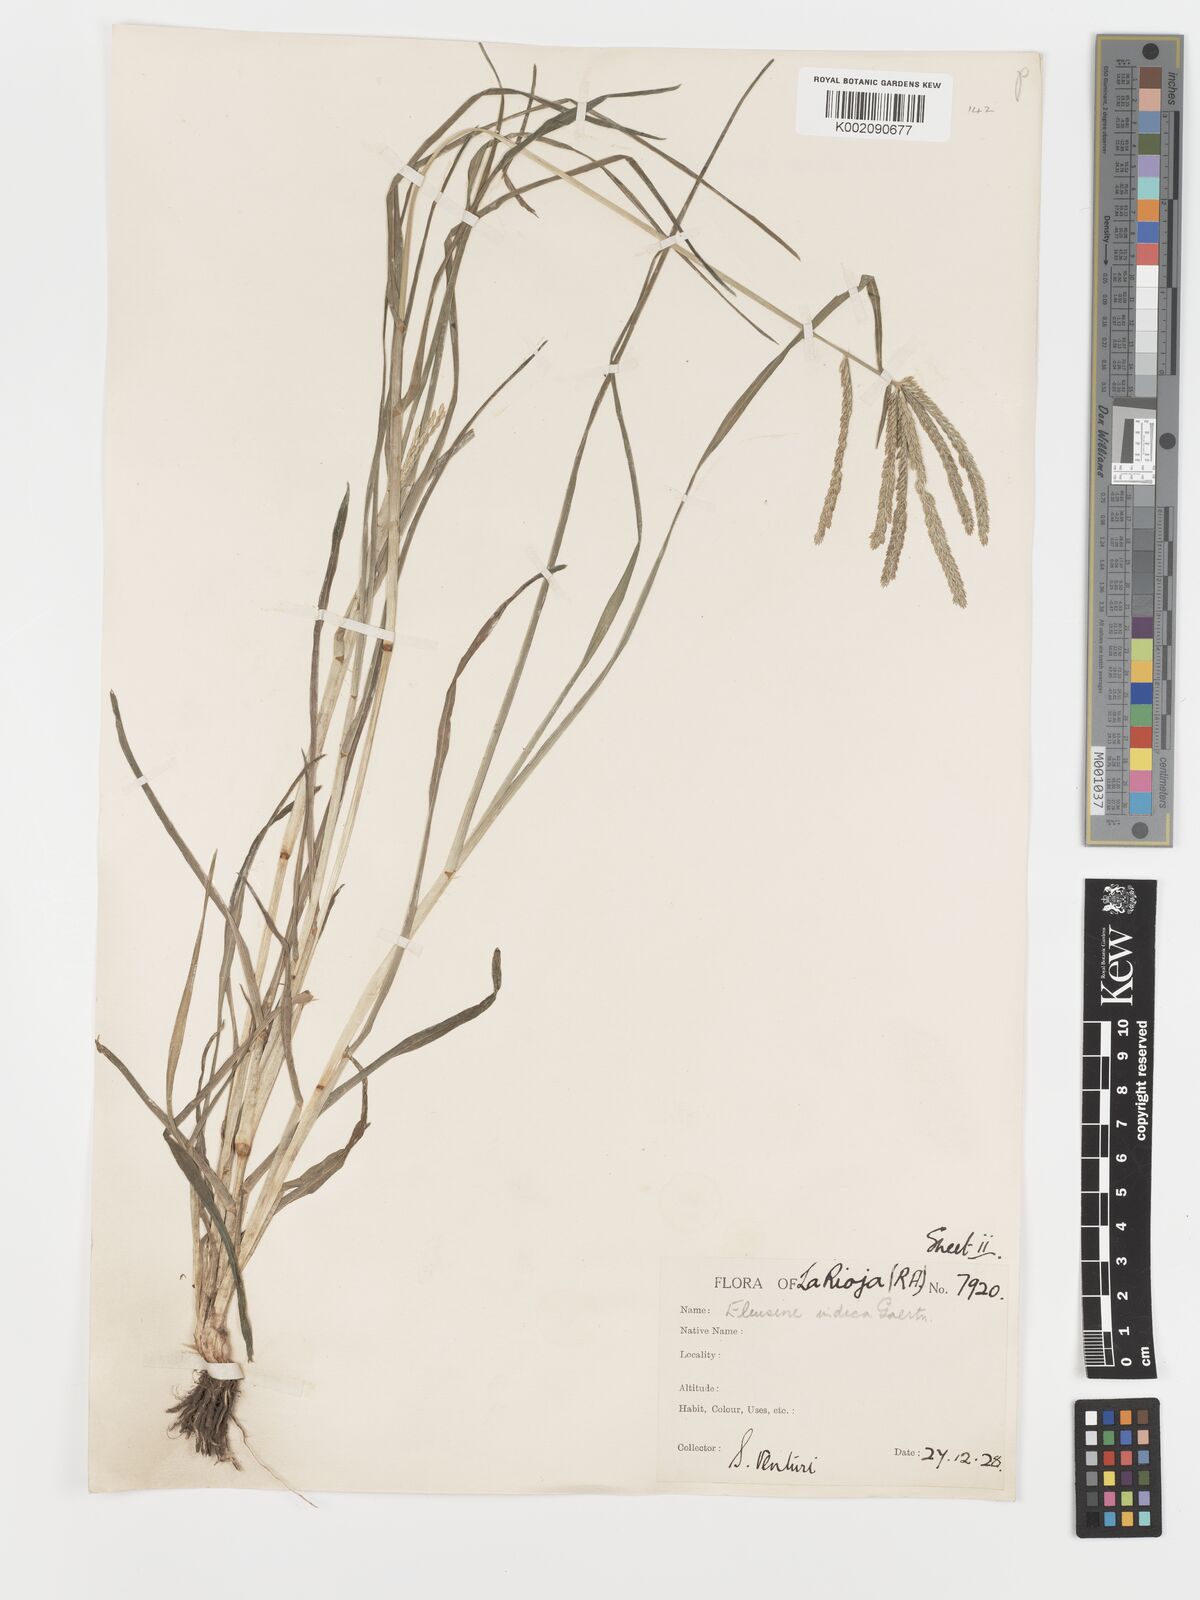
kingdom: Plantae
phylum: Tracheophyta
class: Liliopsida
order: Poales
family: Poaceae
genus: Eleusine
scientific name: Eleusine indica
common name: Yard-grass
